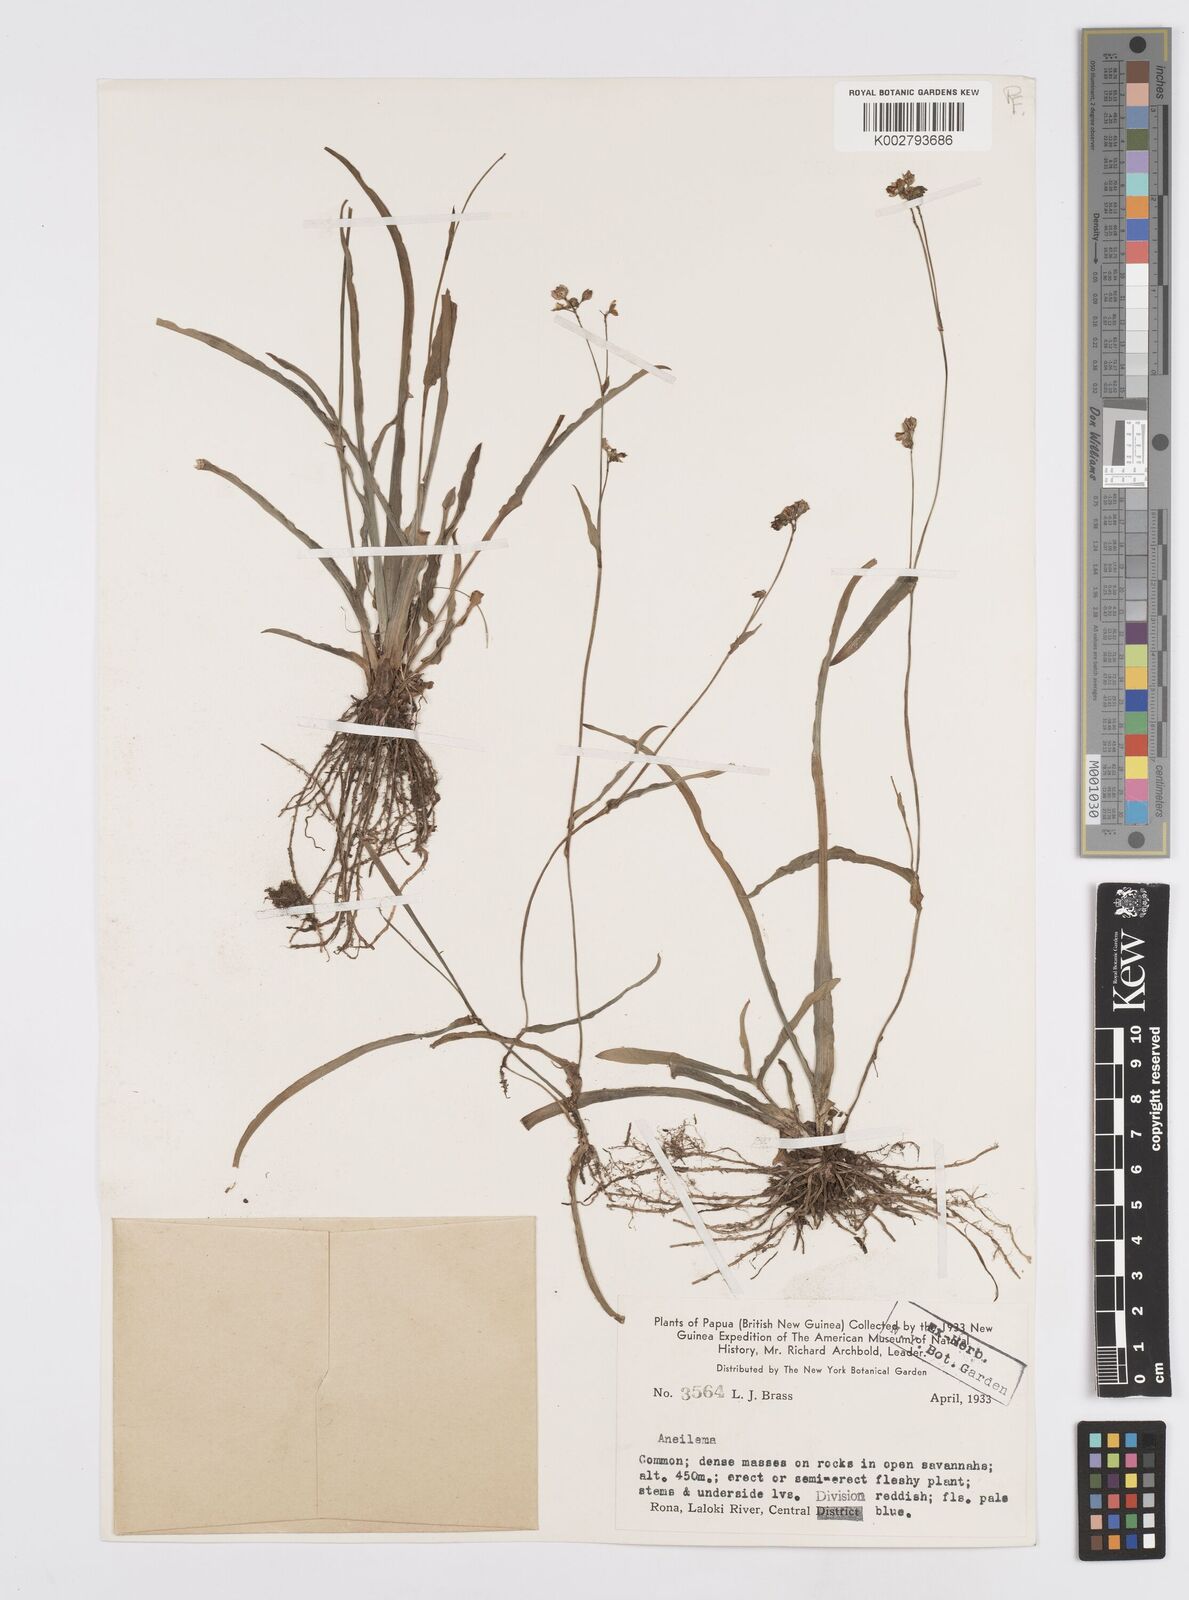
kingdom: Plantae
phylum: Tracheophyta
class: Liliopsida
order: Commelinales
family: Commelinaceae
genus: Murdannia
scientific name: Murdannia
